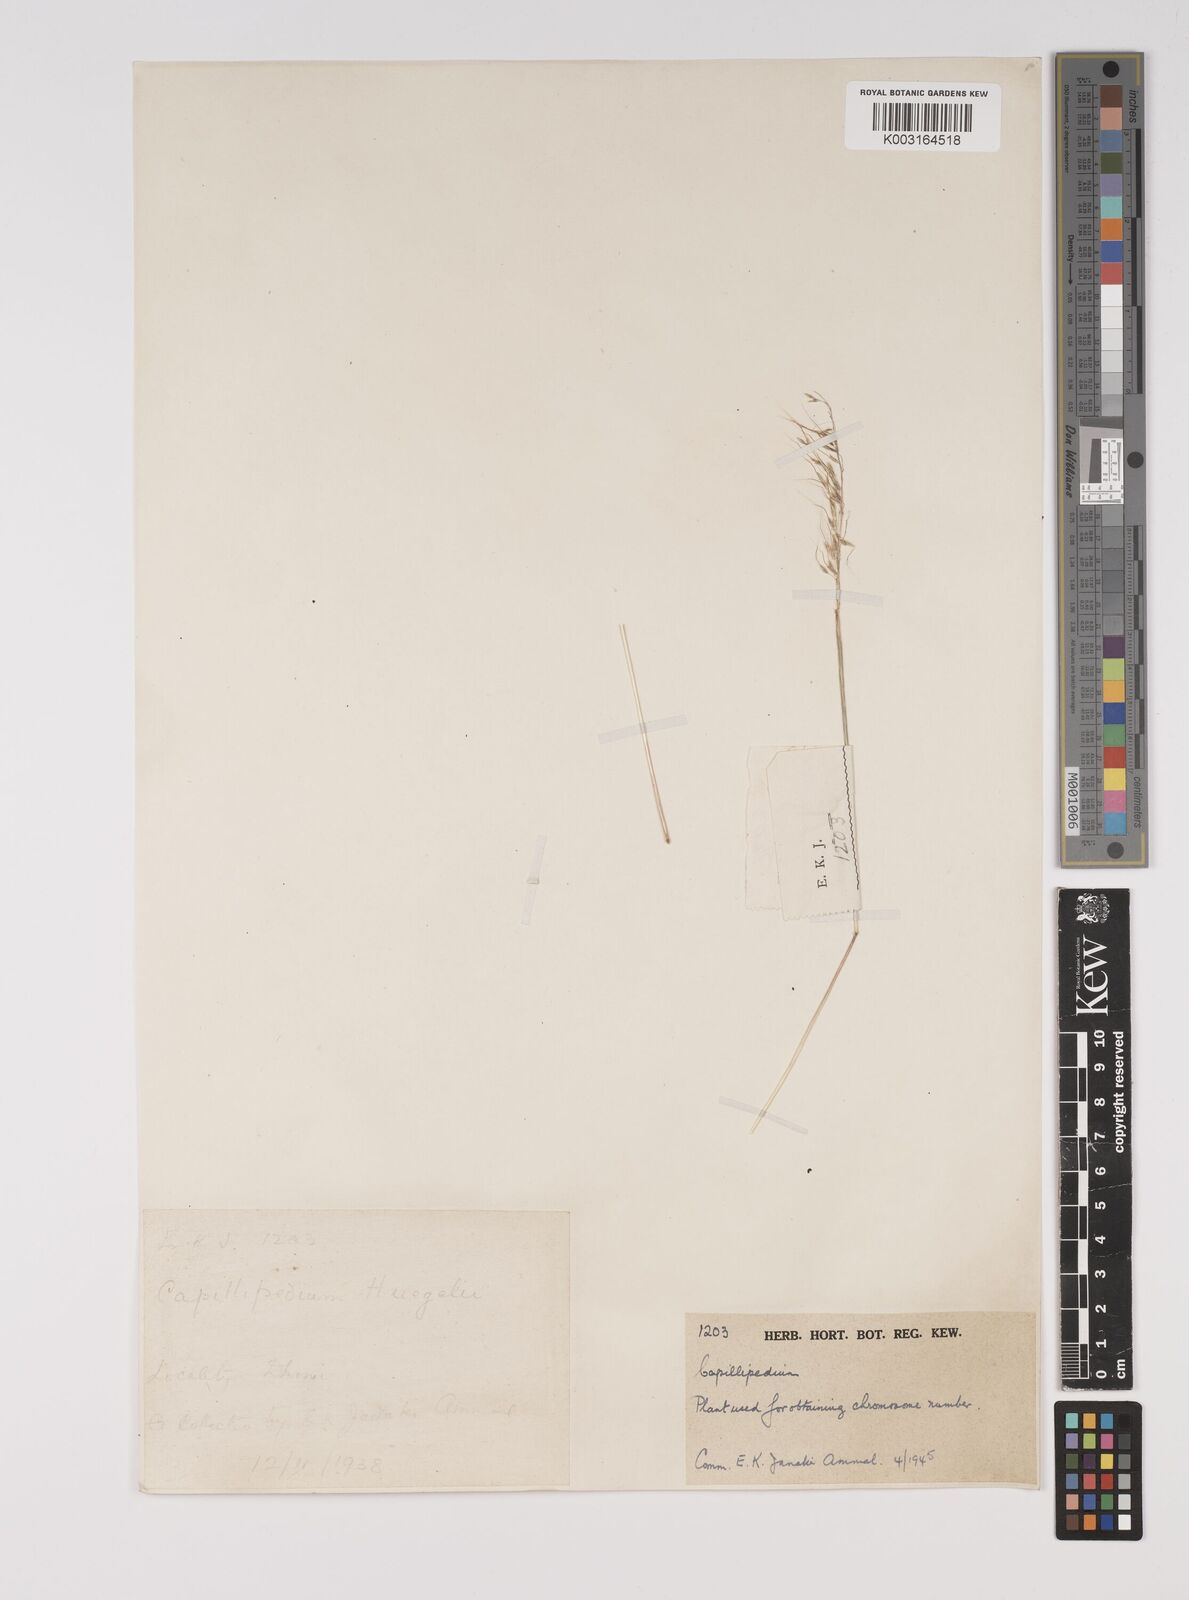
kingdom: Plantae
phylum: Tracheophyta
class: Liliopsida
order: Poales
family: Poaceae
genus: Capillipedium
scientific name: Capillipedium huegelii
